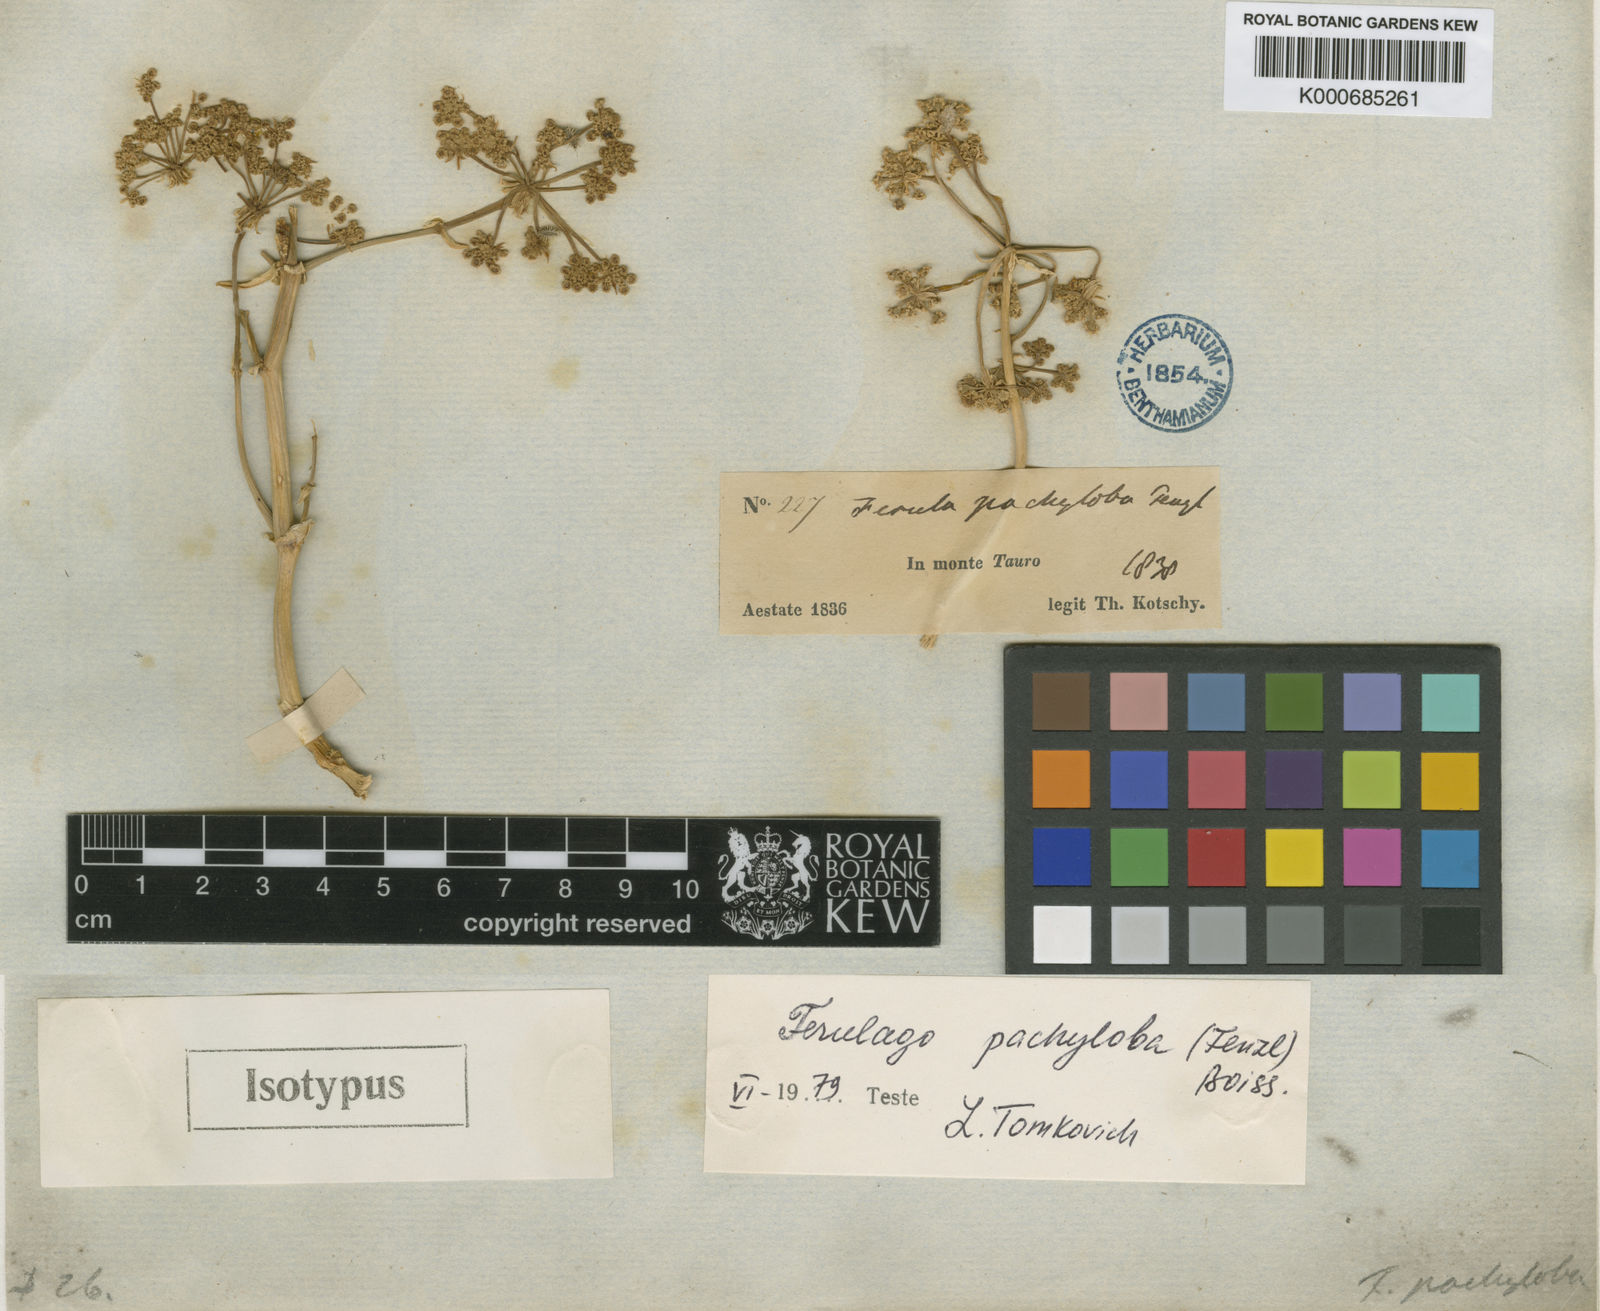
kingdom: Plantae
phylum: Tracheophyta
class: Magnoliopsida
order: Apiales
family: Apiaceae
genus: Ferulago
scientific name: Ferulago pachyloba
